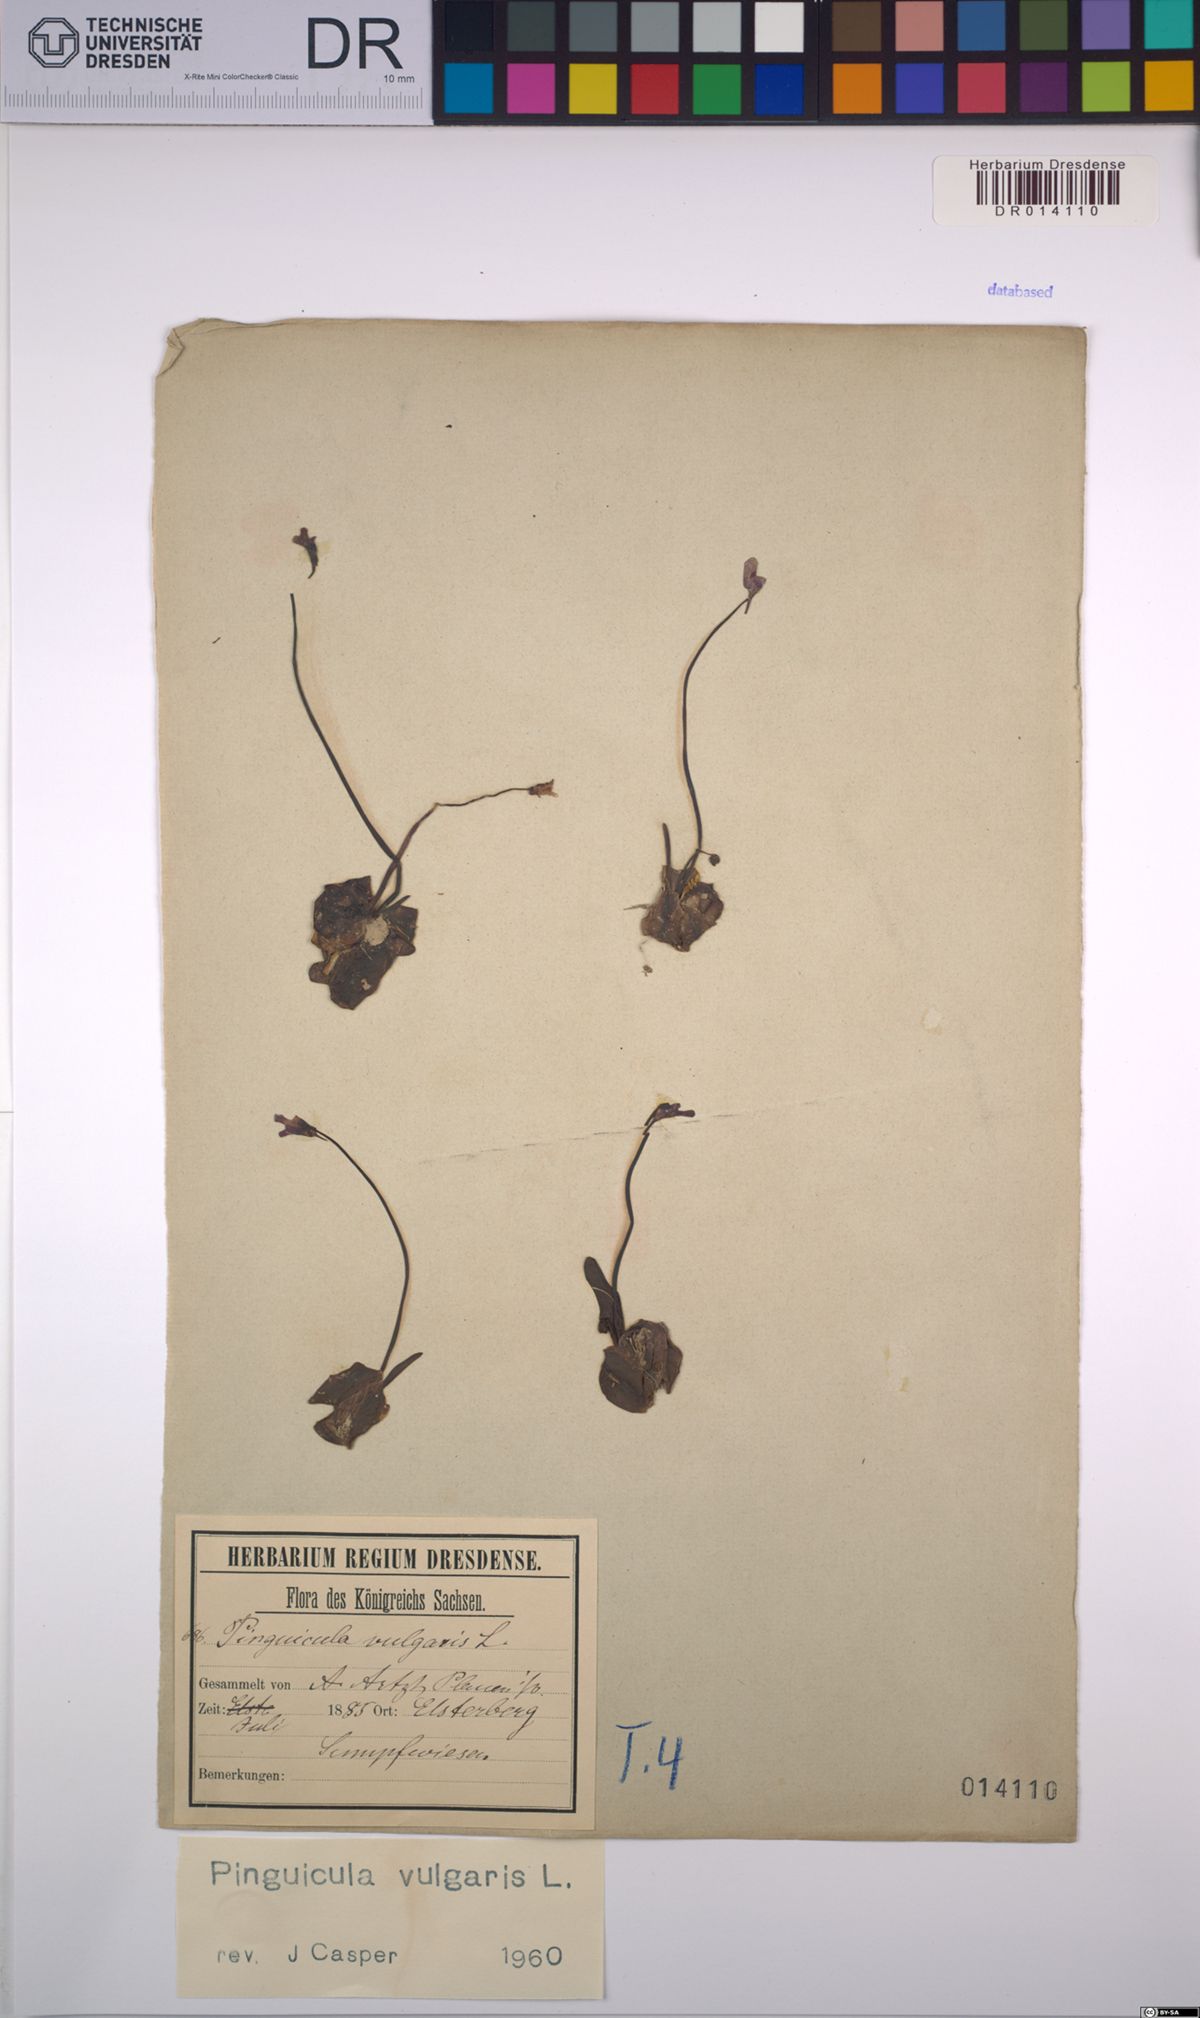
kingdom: Plantae
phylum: Tracheophyta
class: Magnoliopsida
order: Lamiales
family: Lentibulariaceae
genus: Pinguicula
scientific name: Pinguicula vulgaris
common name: Common butterwort
